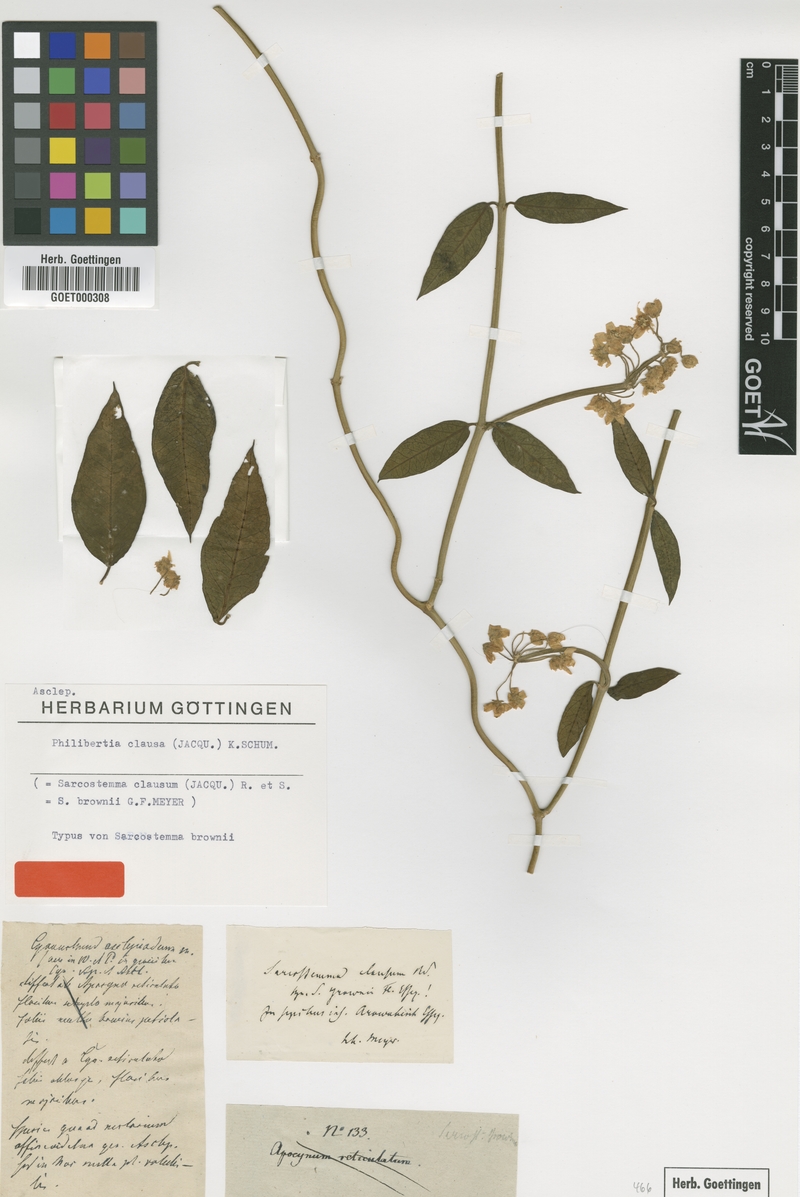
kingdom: Plantae
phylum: Tracheophyta
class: Magnoliopsida
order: Gentianales
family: Apocynaceae
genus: Funastrum
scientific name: Funastrum clausum
